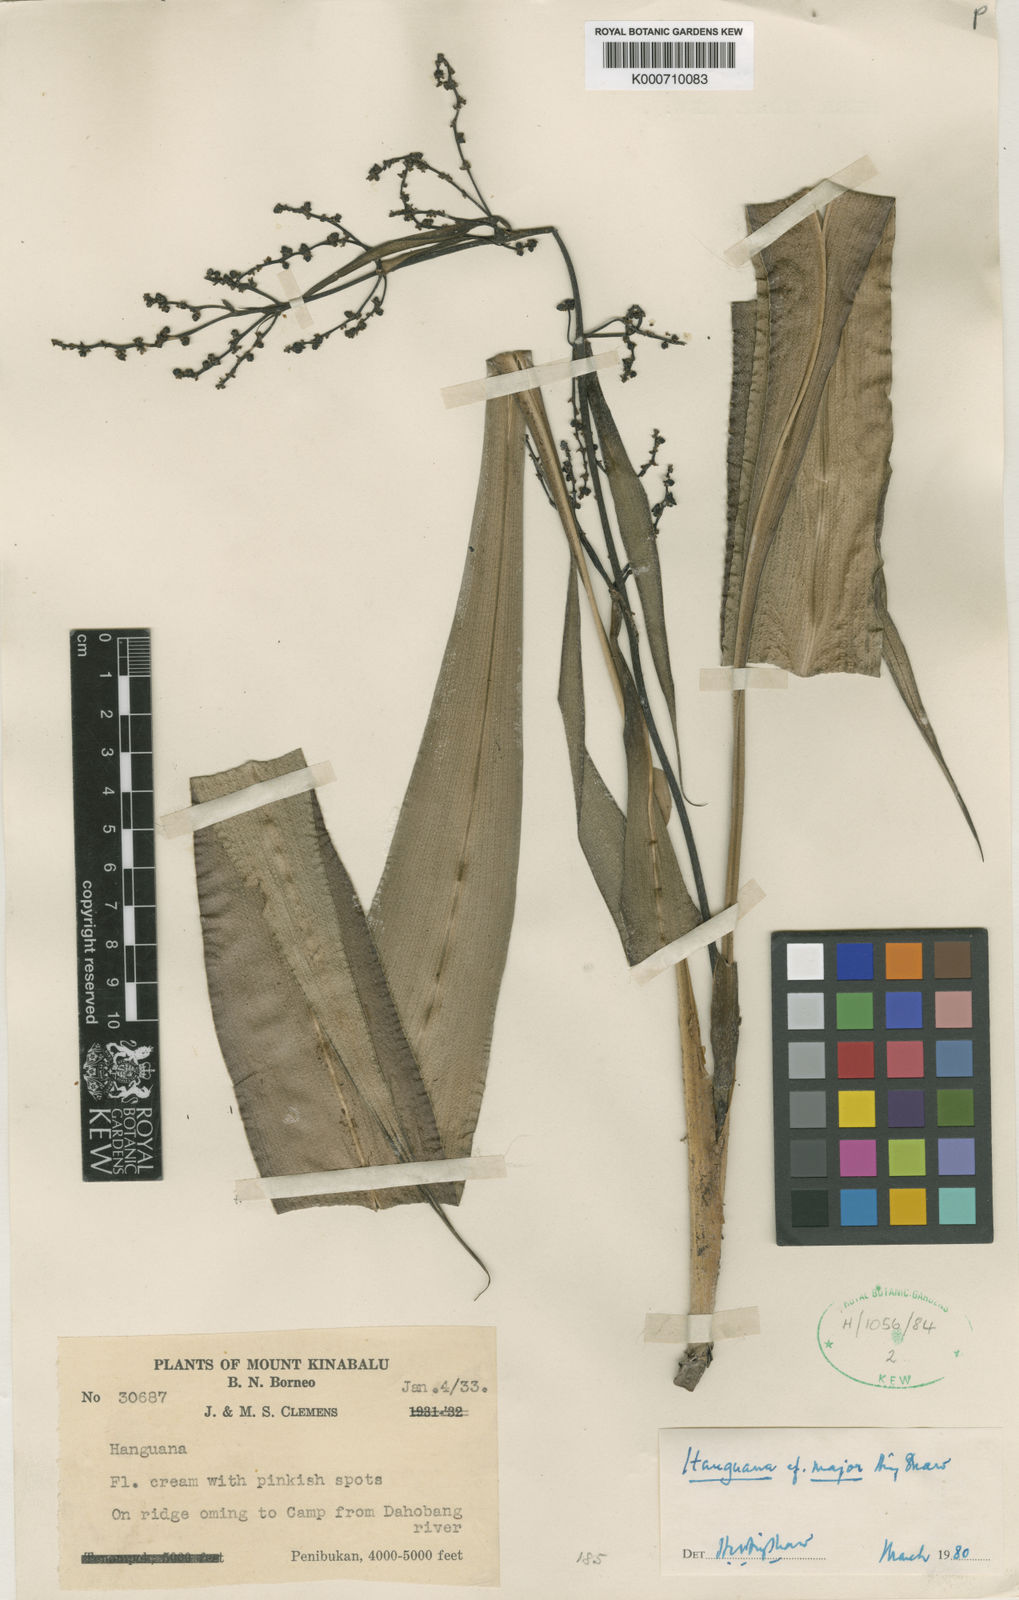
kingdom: Plantae
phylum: Tracheophyta
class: Liliopsida
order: Commelinales
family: Hanguanaceae
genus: Hanguana
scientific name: Hanguana major
